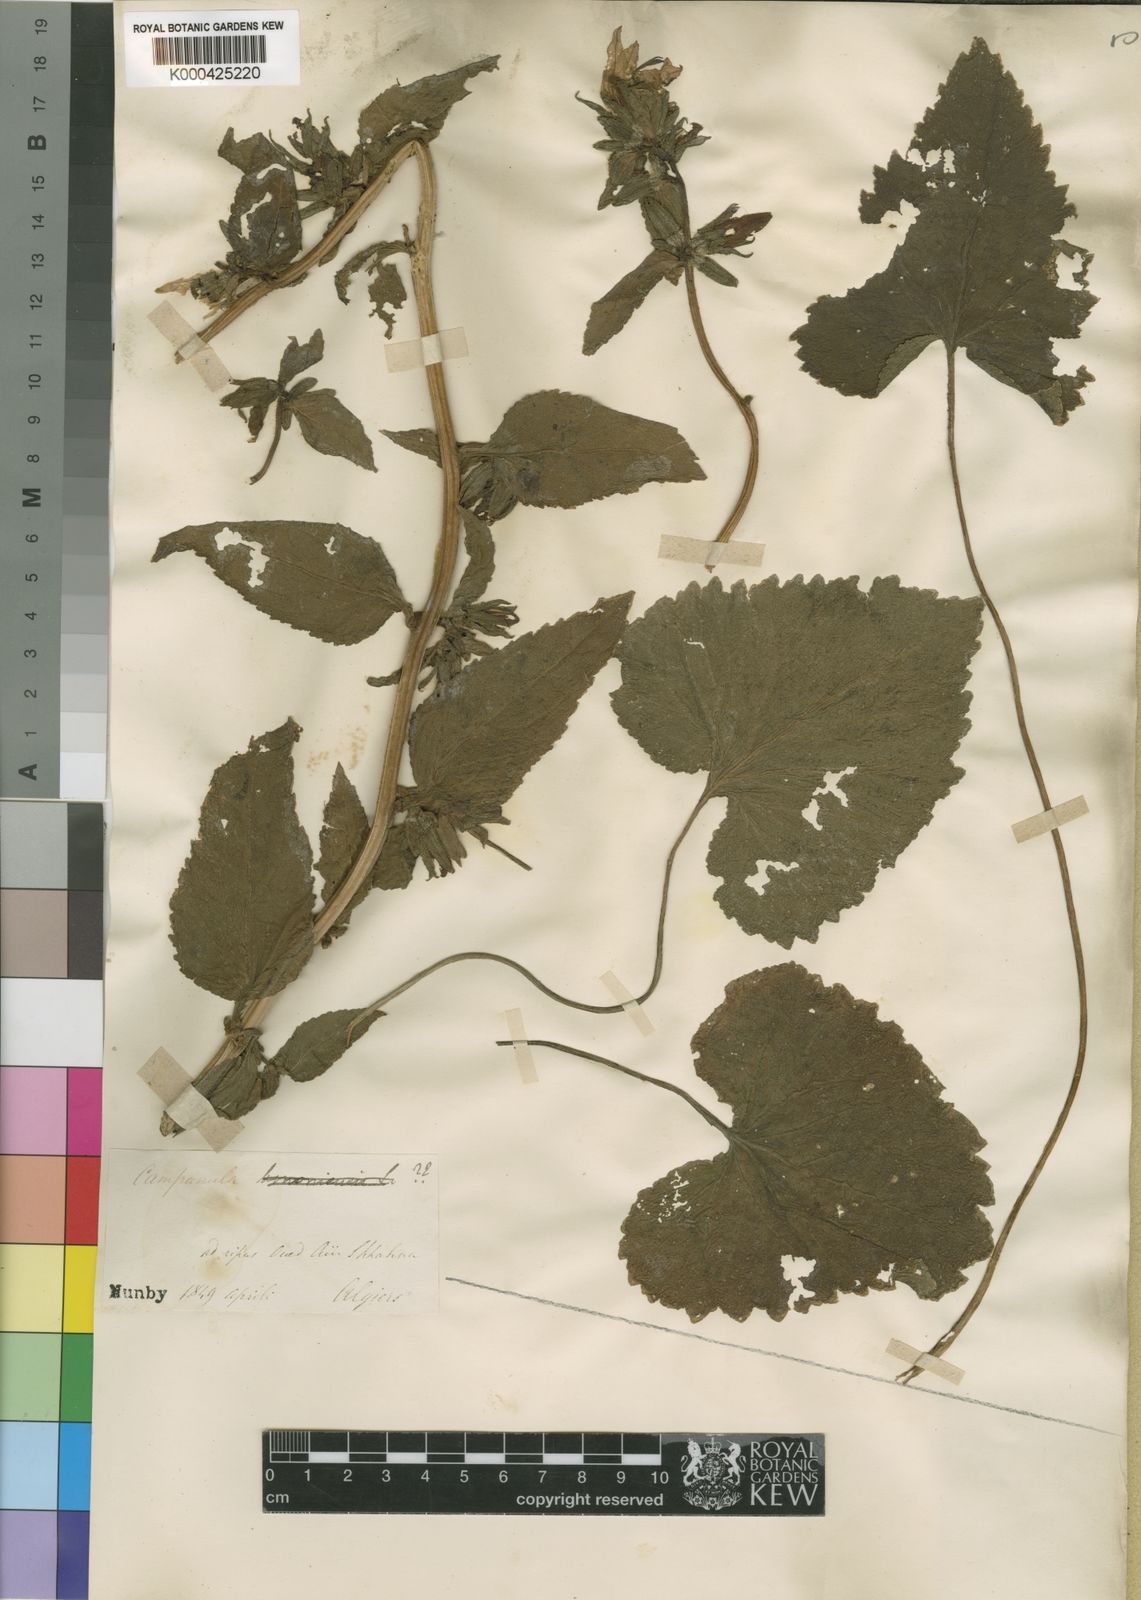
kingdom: Plantae
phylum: Tracheophyta
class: Magnoliopsida
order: Asterales
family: Campanulaceae
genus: Campanula
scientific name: Campanula
